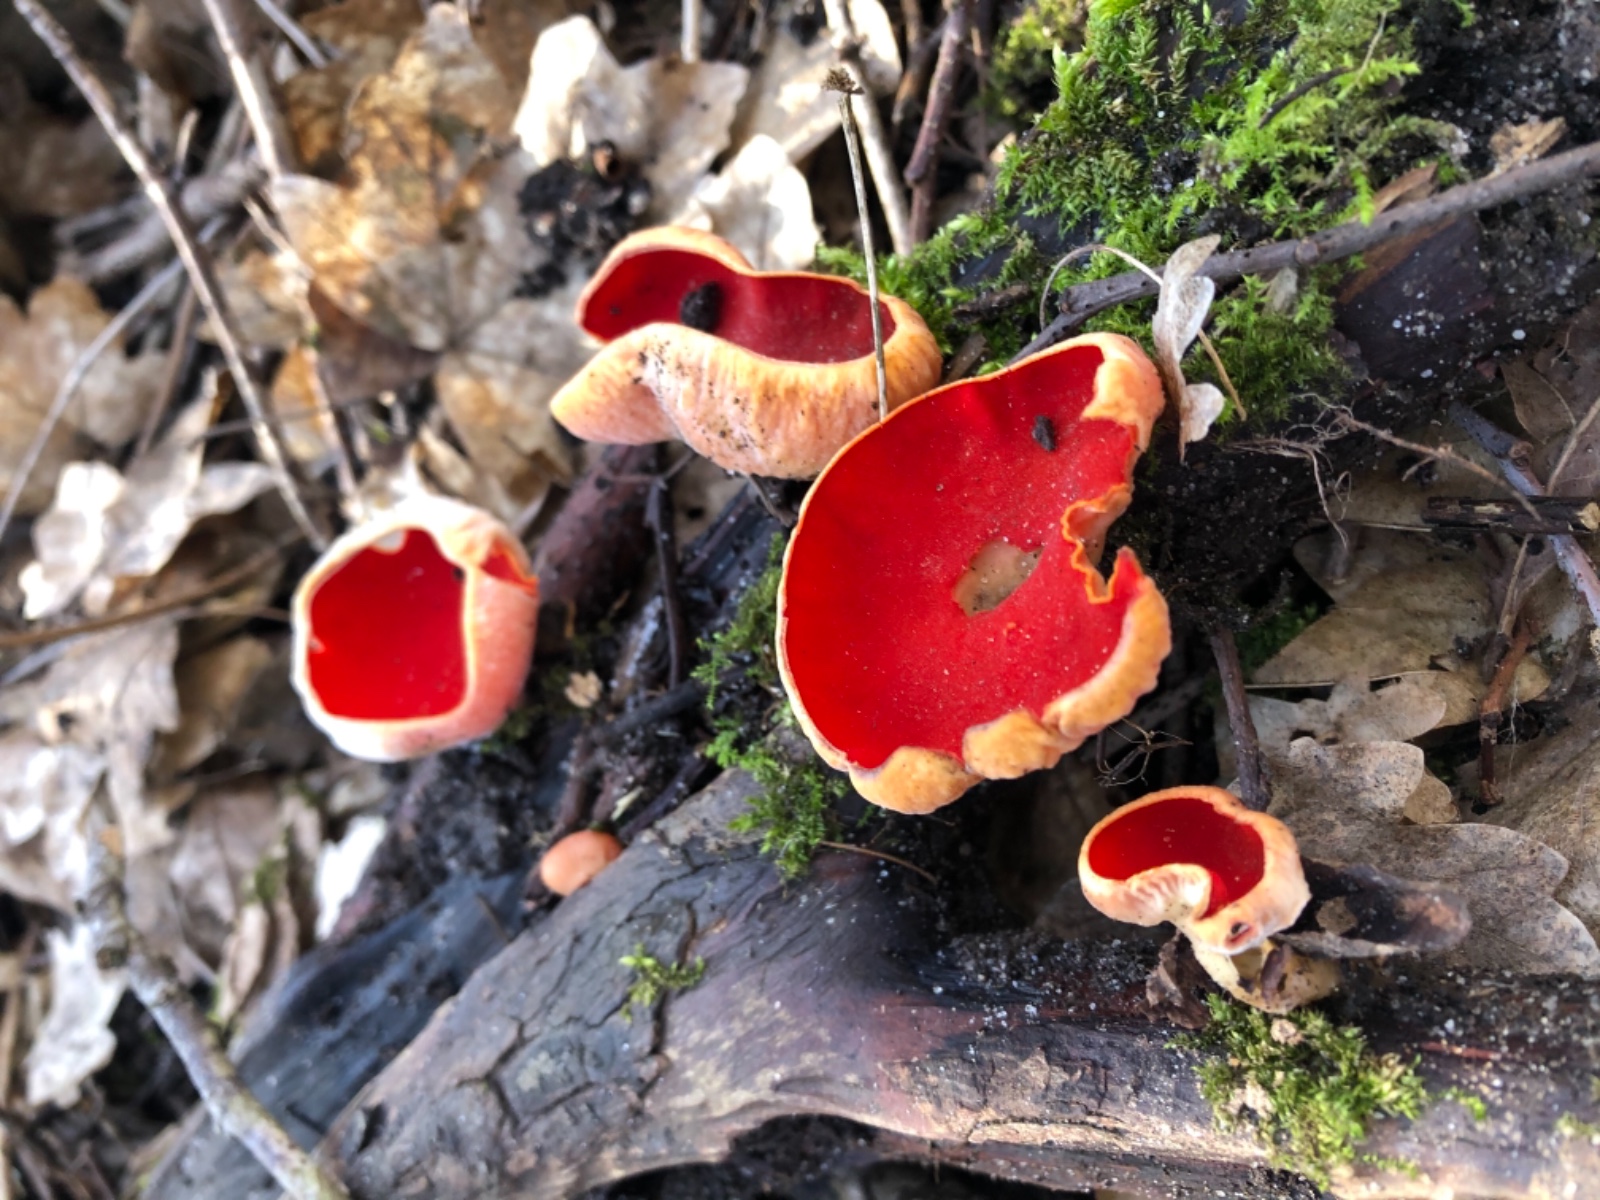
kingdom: Fungi
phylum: Ascomycota
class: Pezizomycetes
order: Pezizales
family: Sarcoscyphaceae
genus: Sarcoscypha
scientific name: Sarcoscypha austriaca
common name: krølhåret pragtbæger
